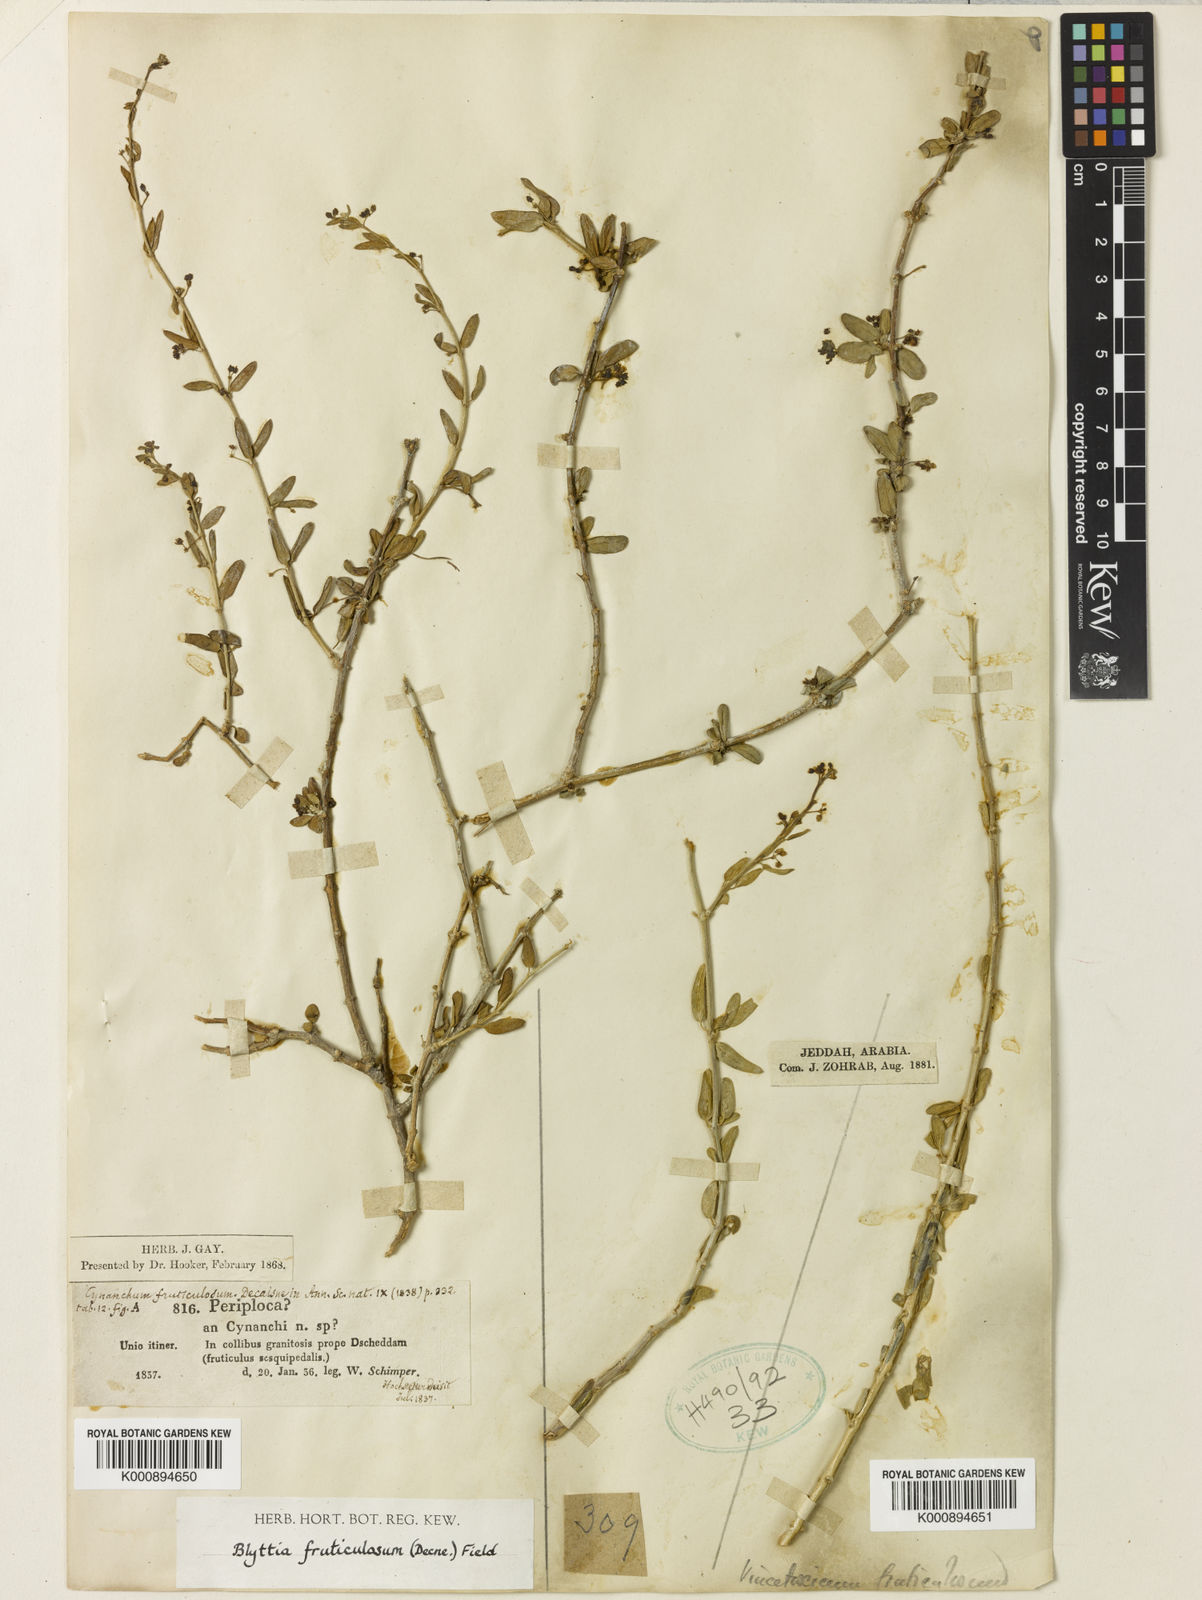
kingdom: Plantae
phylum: Tracheophyta
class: Magnoliopsida
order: Gentianales
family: Apocynaceae
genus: Vincetoxicum
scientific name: Vincetoxicum fruticulosum
